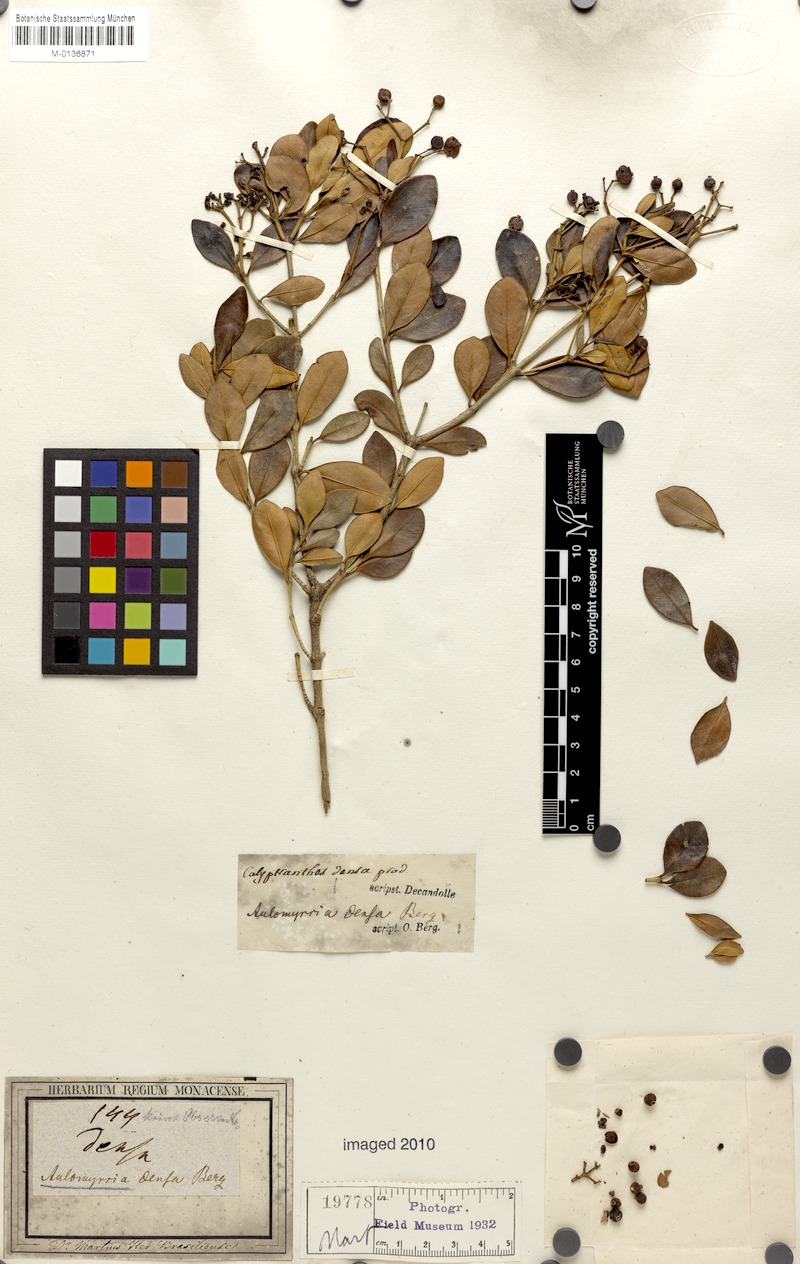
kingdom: Plantae
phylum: Tracheophyta
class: Magnoliopsida
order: Myrtales
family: Myrtaceae
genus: Myrcia
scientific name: Myrcia densa
